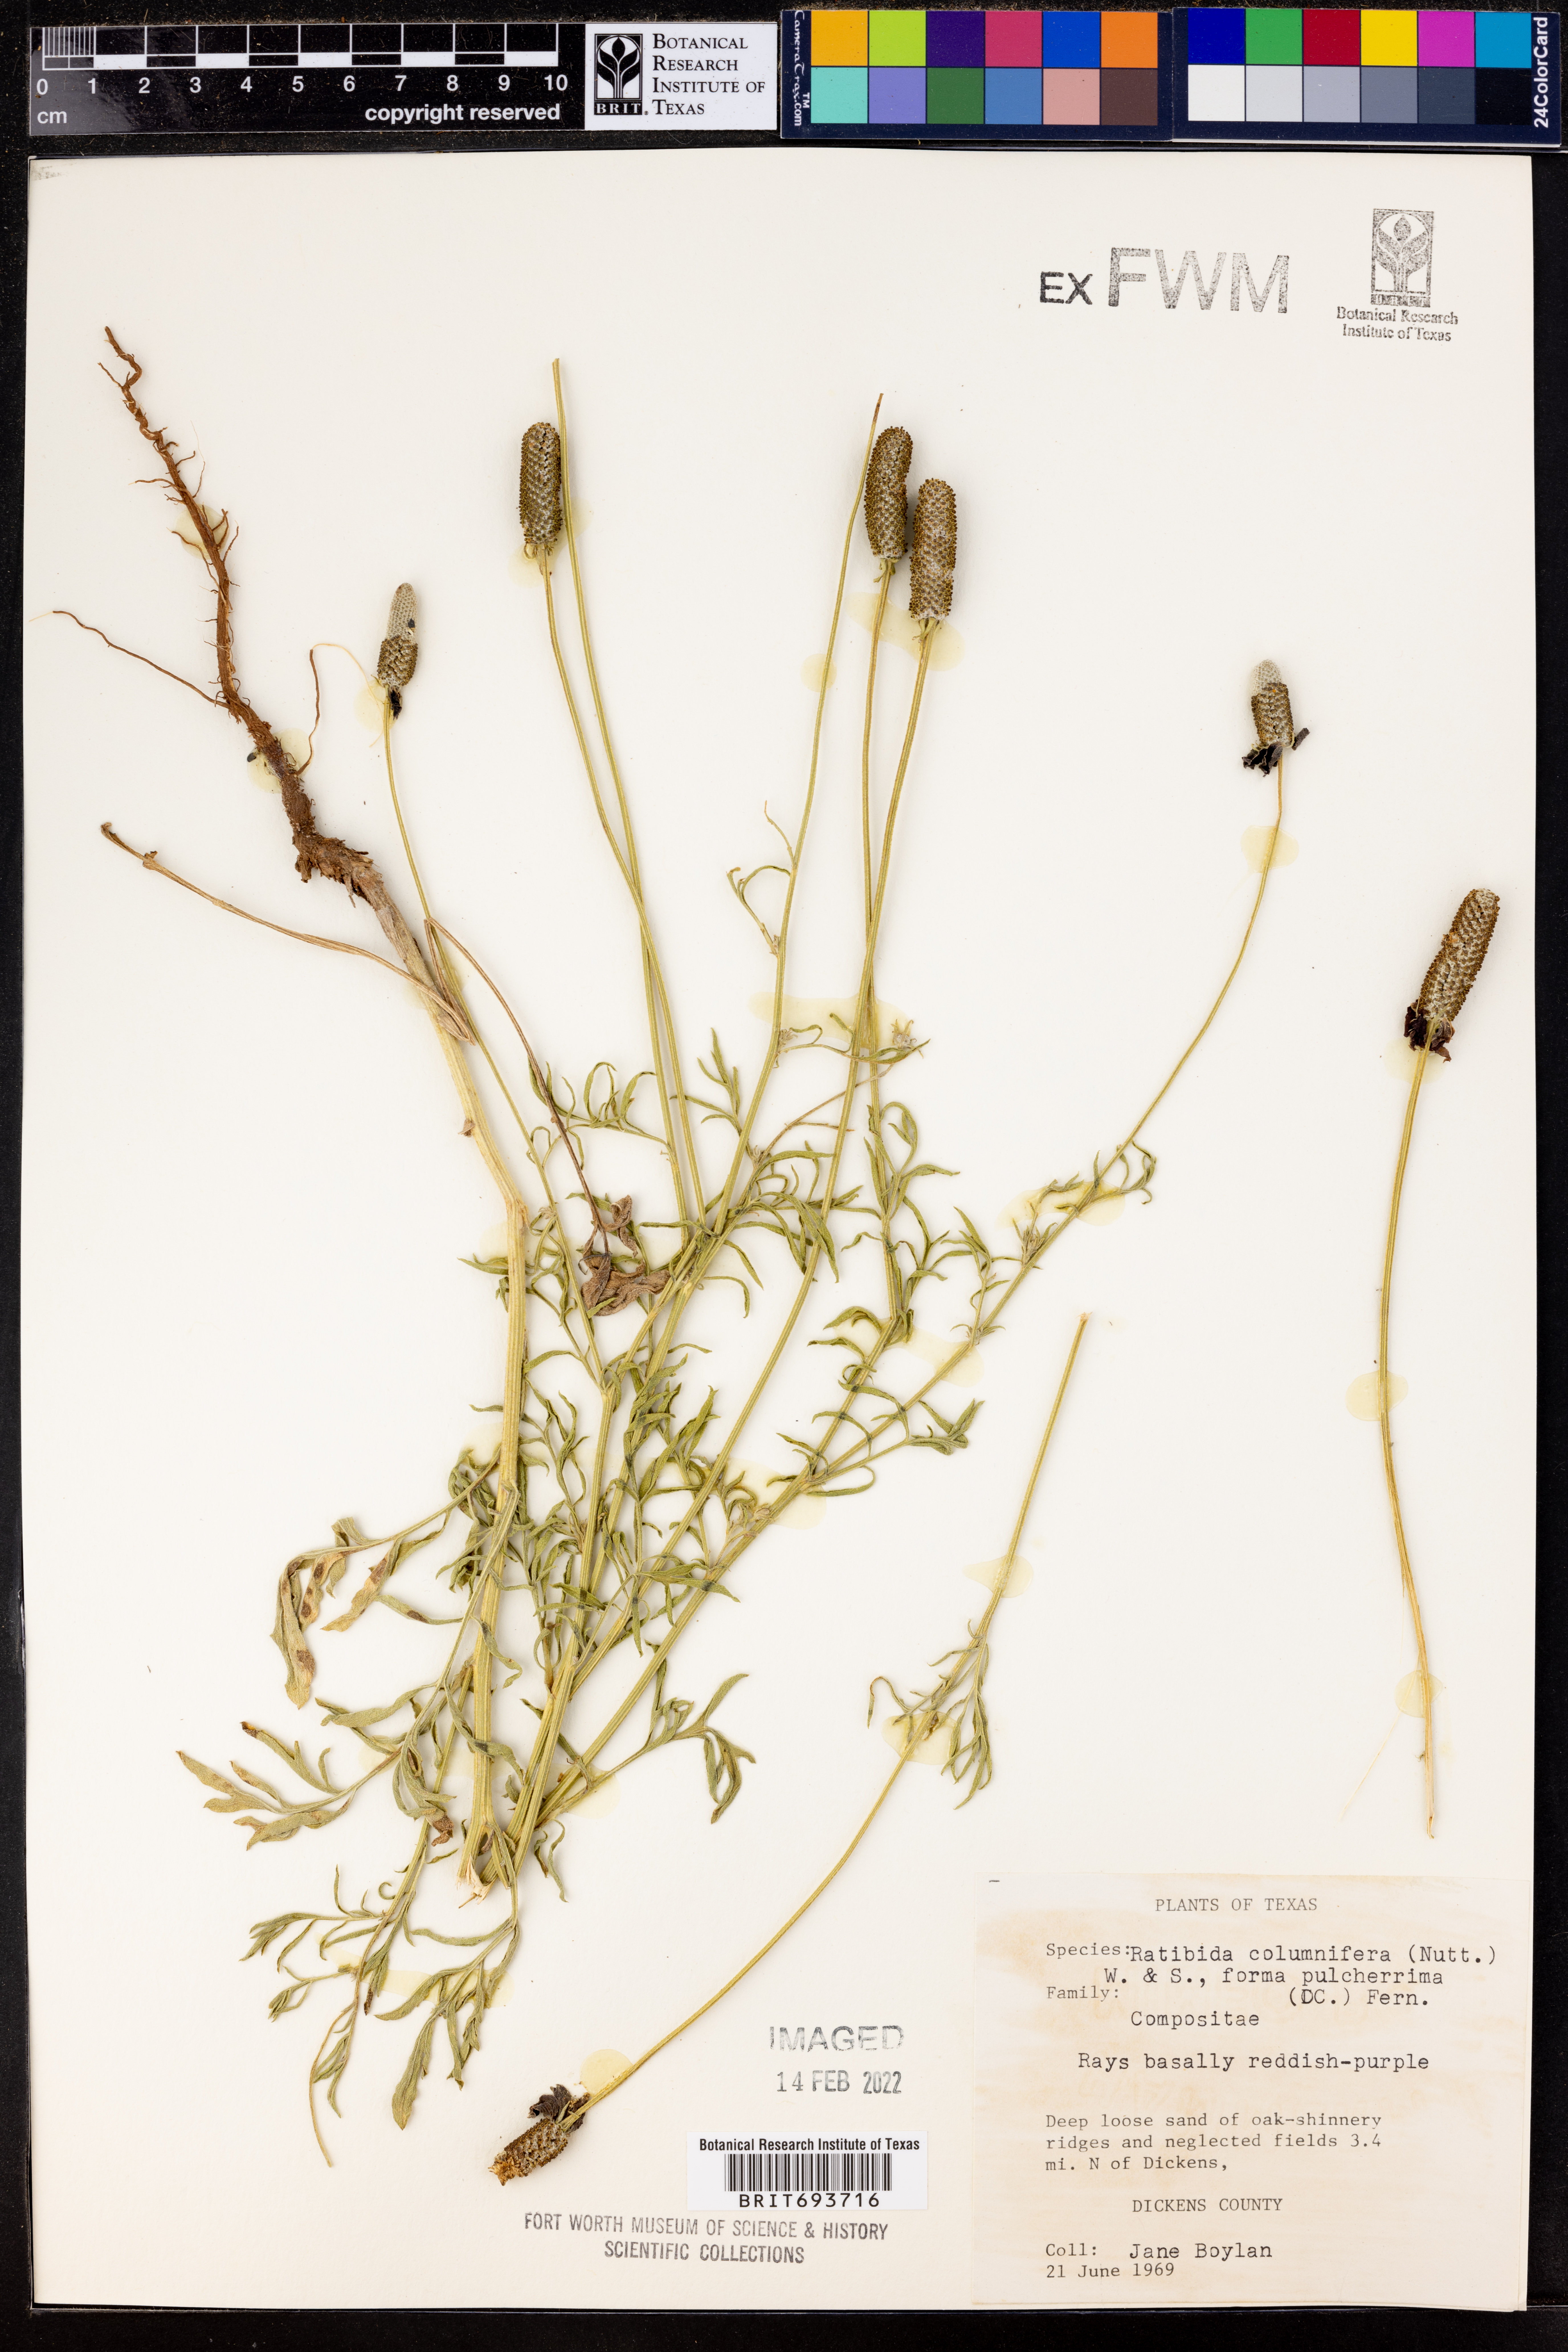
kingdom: Plantae
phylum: Tracheophyta
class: Magnoliopsida
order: Asterales
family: Asteraceae
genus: Ratibida
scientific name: Ratibida columnifera
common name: Prairie coneflower
